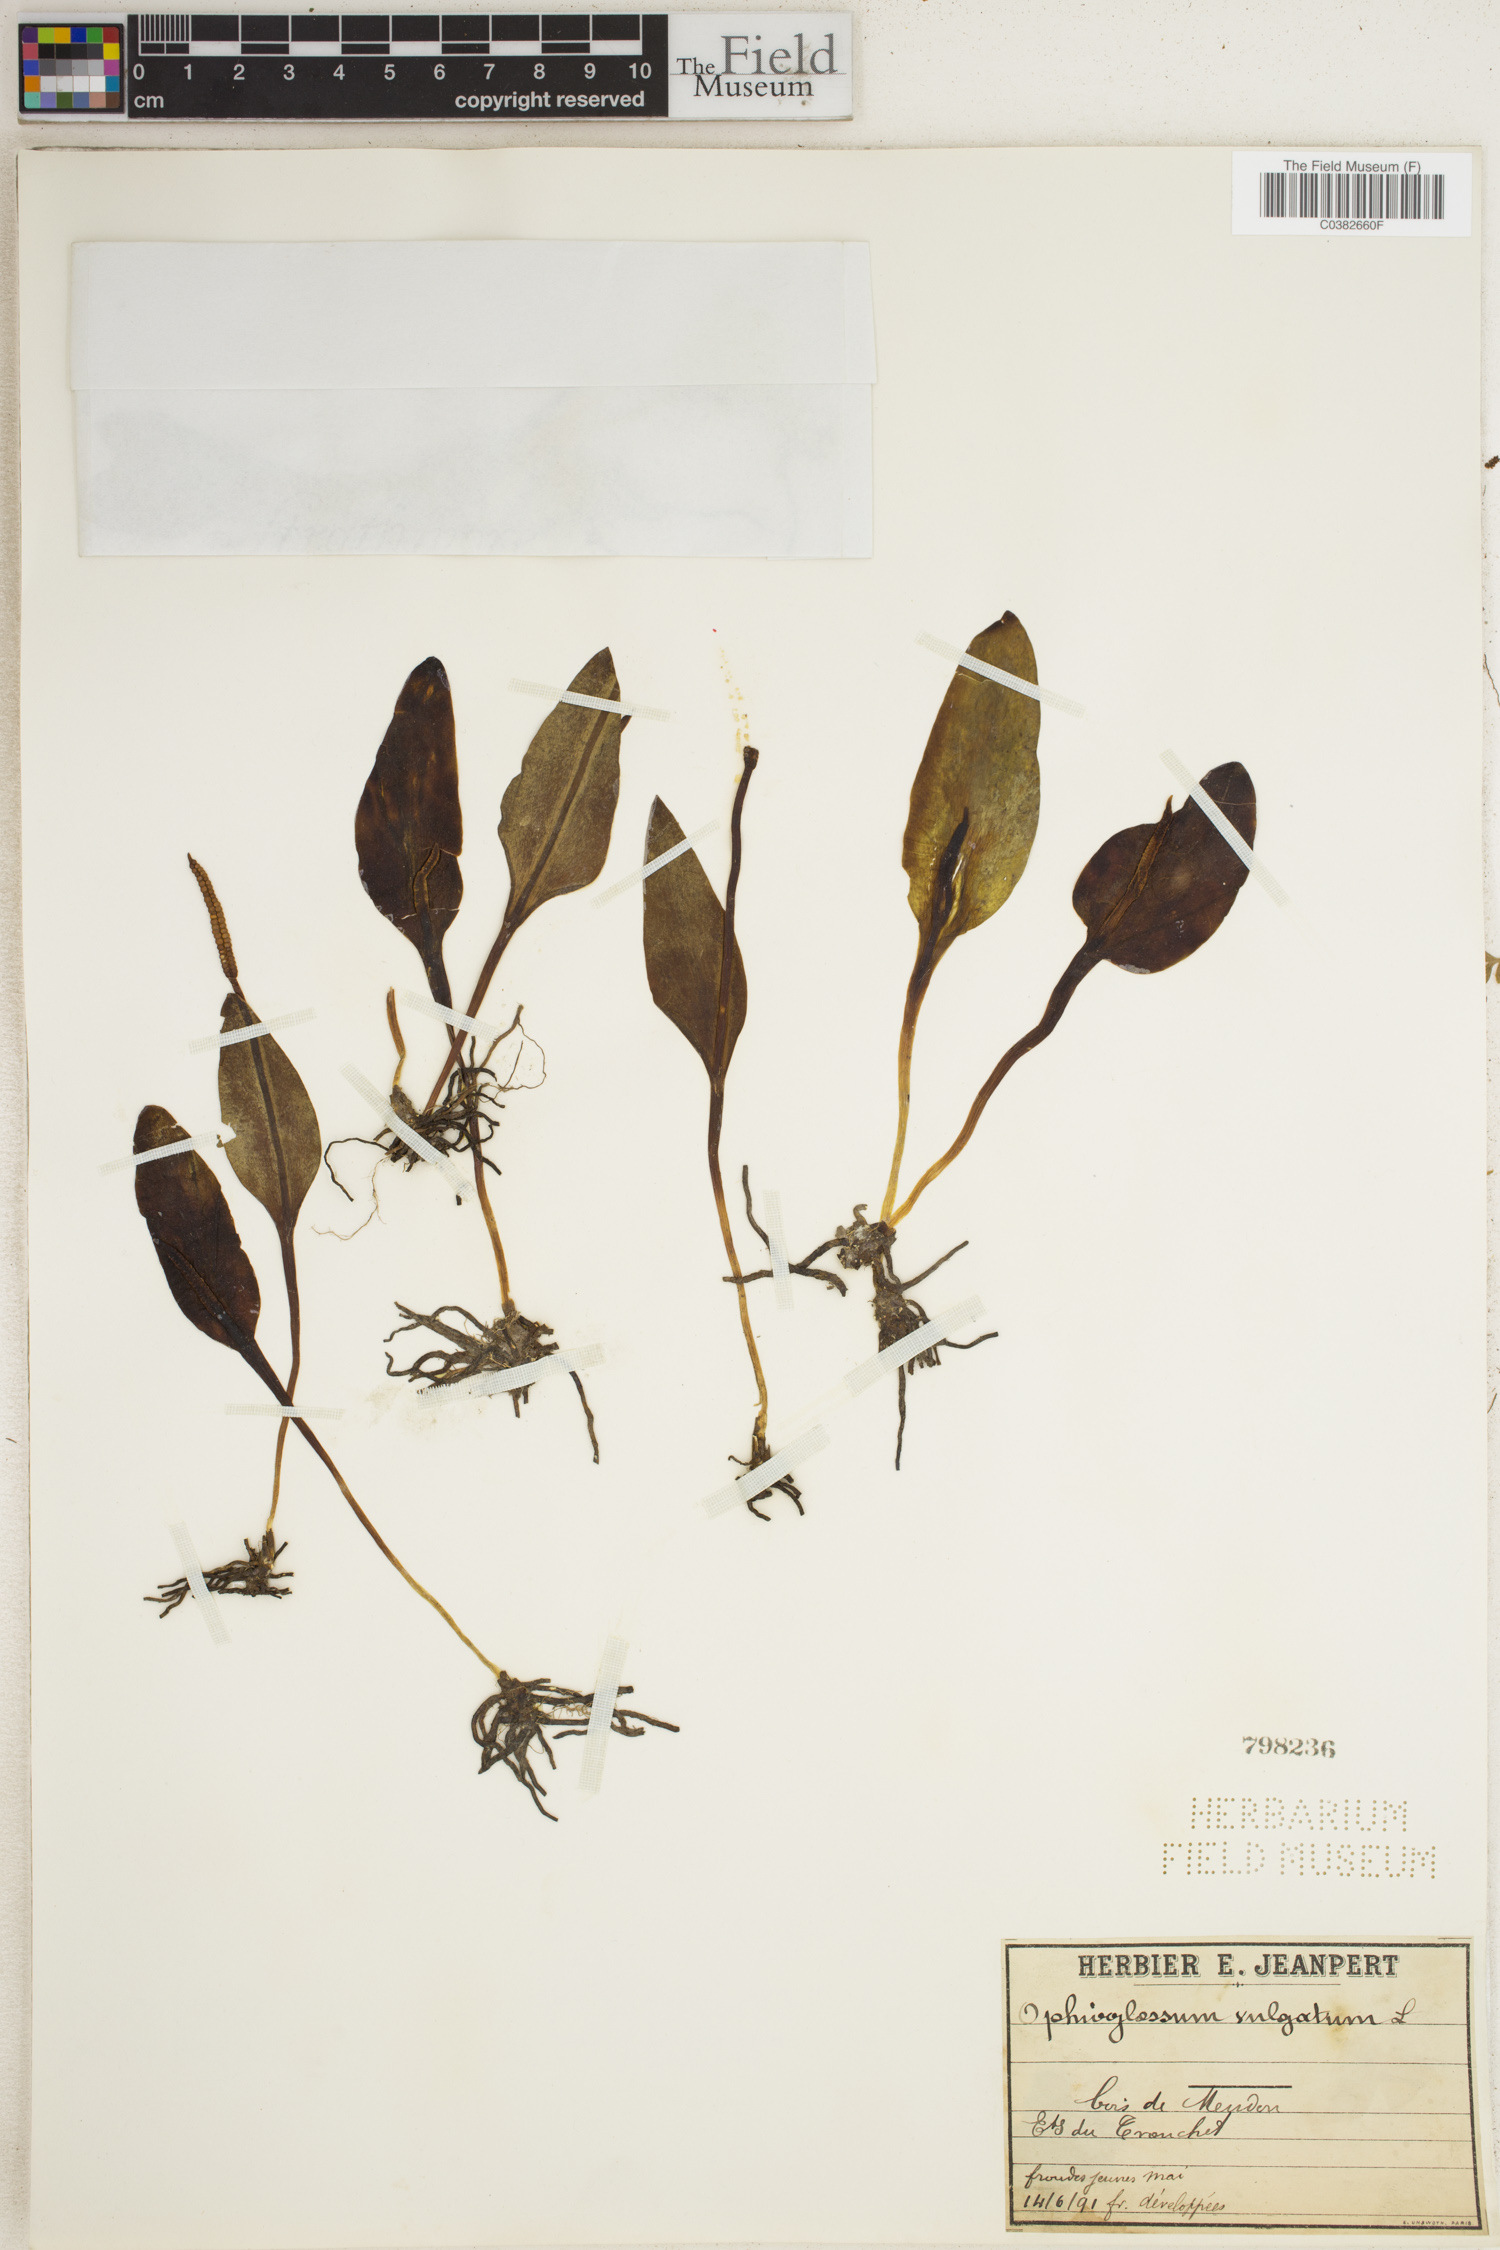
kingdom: Plantae
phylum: Tracheophyta
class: Polypodiopsida
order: Ophioglossales
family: Ophioglossaceae
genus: Ophioglossum
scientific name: Ophioglossum vulgatum
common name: Adder's-tongue
